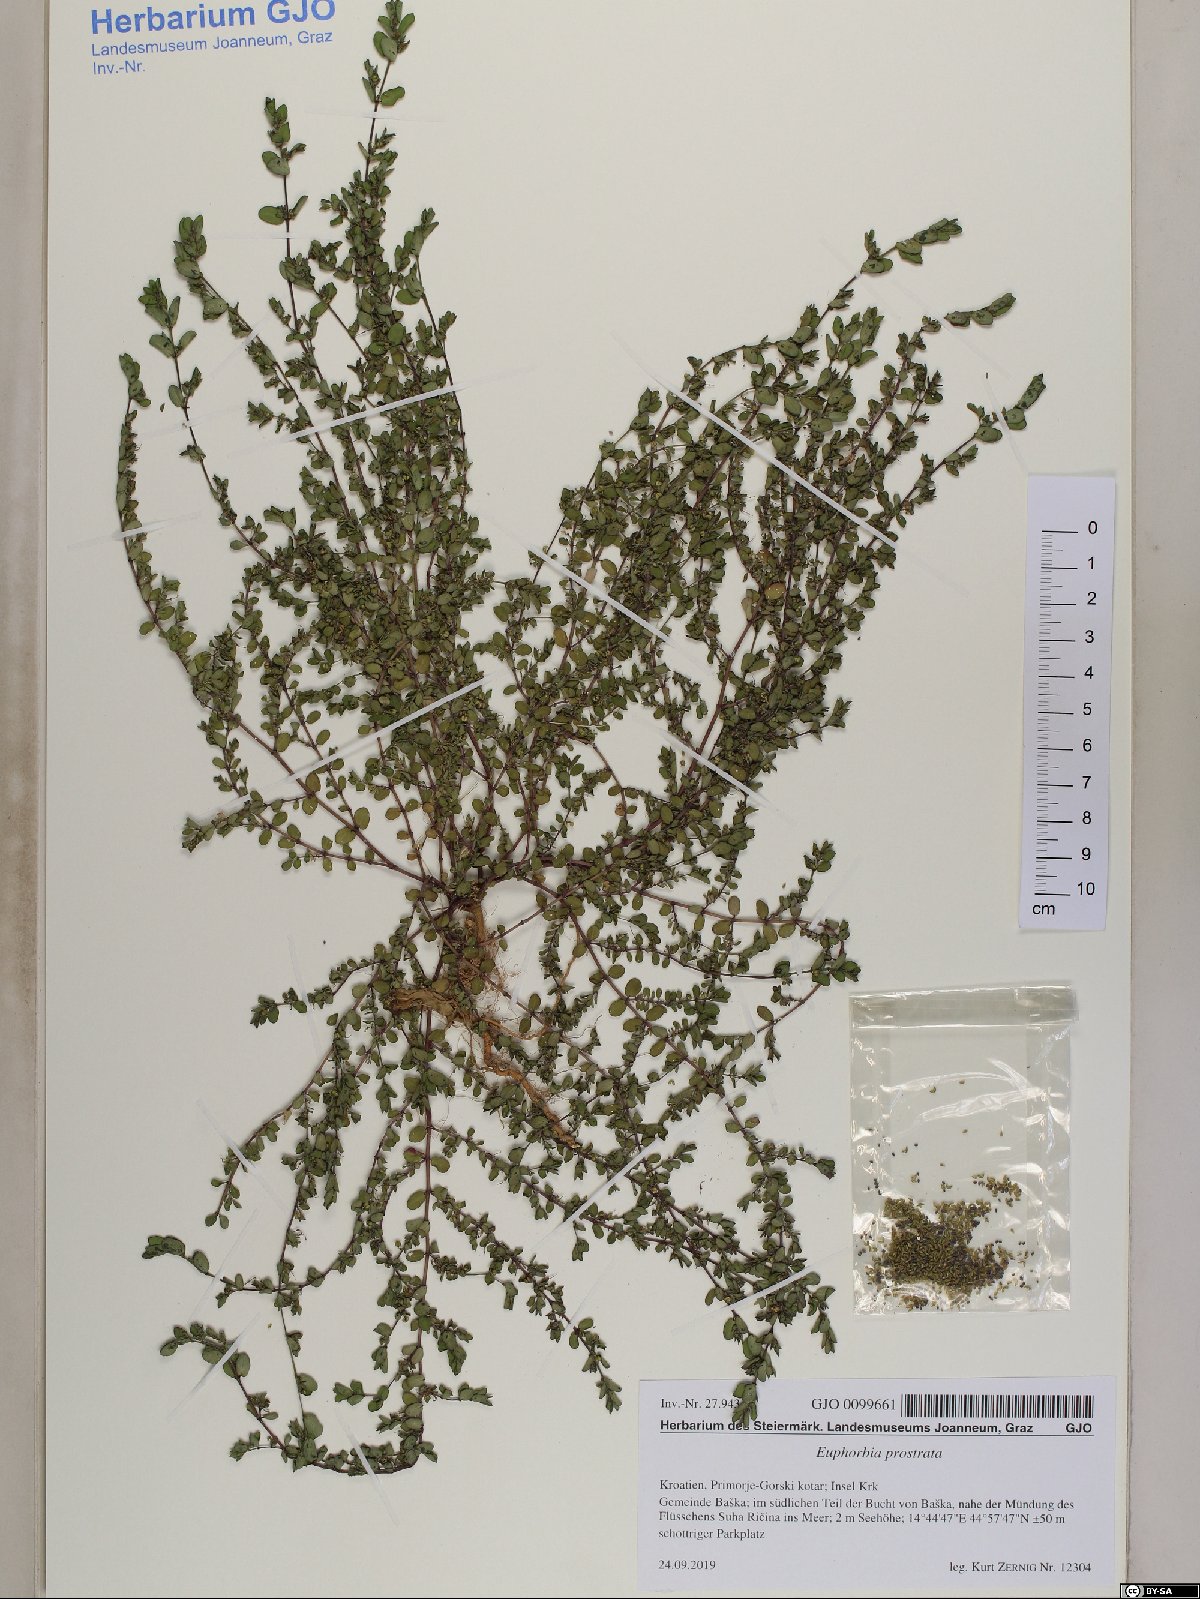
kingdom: Plantae
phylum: Tracheophyta
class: Magnoliopsida
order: Malpighiales
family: Euphorbiaceae
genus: Euphorbia
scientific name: Euphorbia prostrata
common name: Prostrate sandmat
